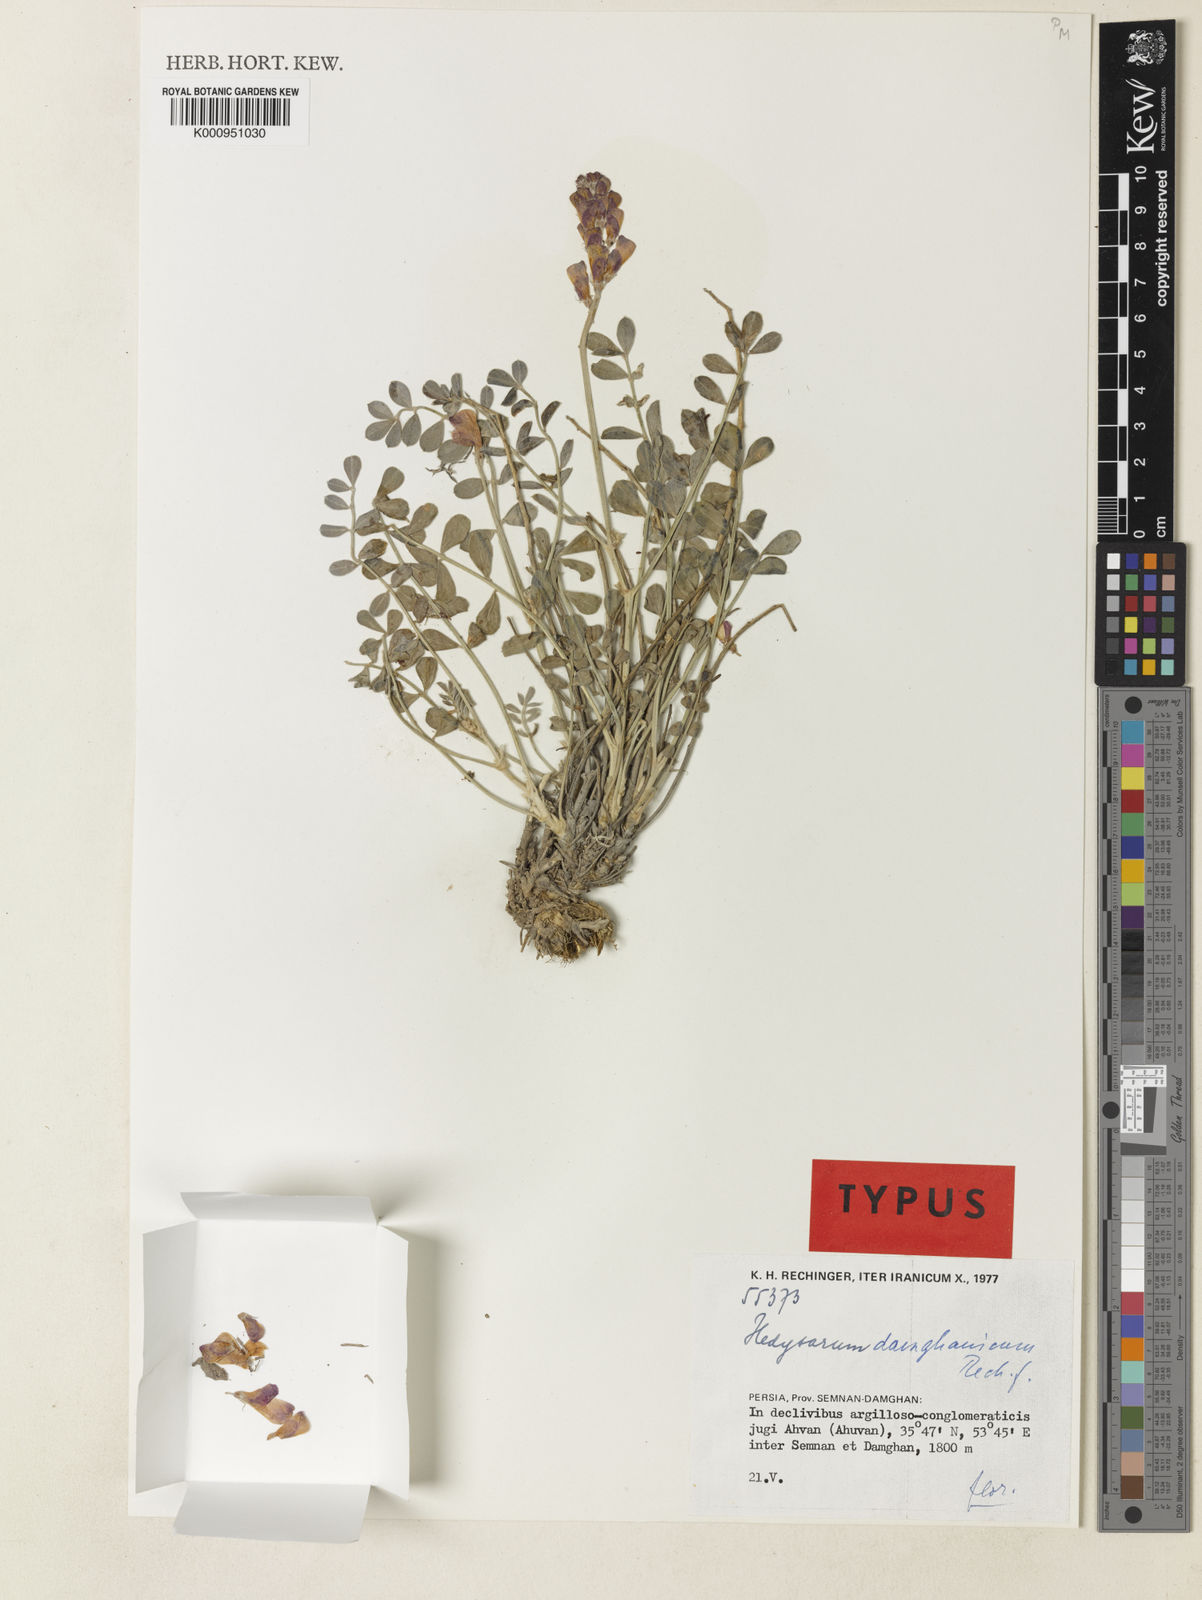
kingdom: Plantae
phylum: Tracheophyta
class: Magnoliopsida
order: Fabales
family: Fabaceae
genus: Hedysarum
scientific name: Hedysarum
